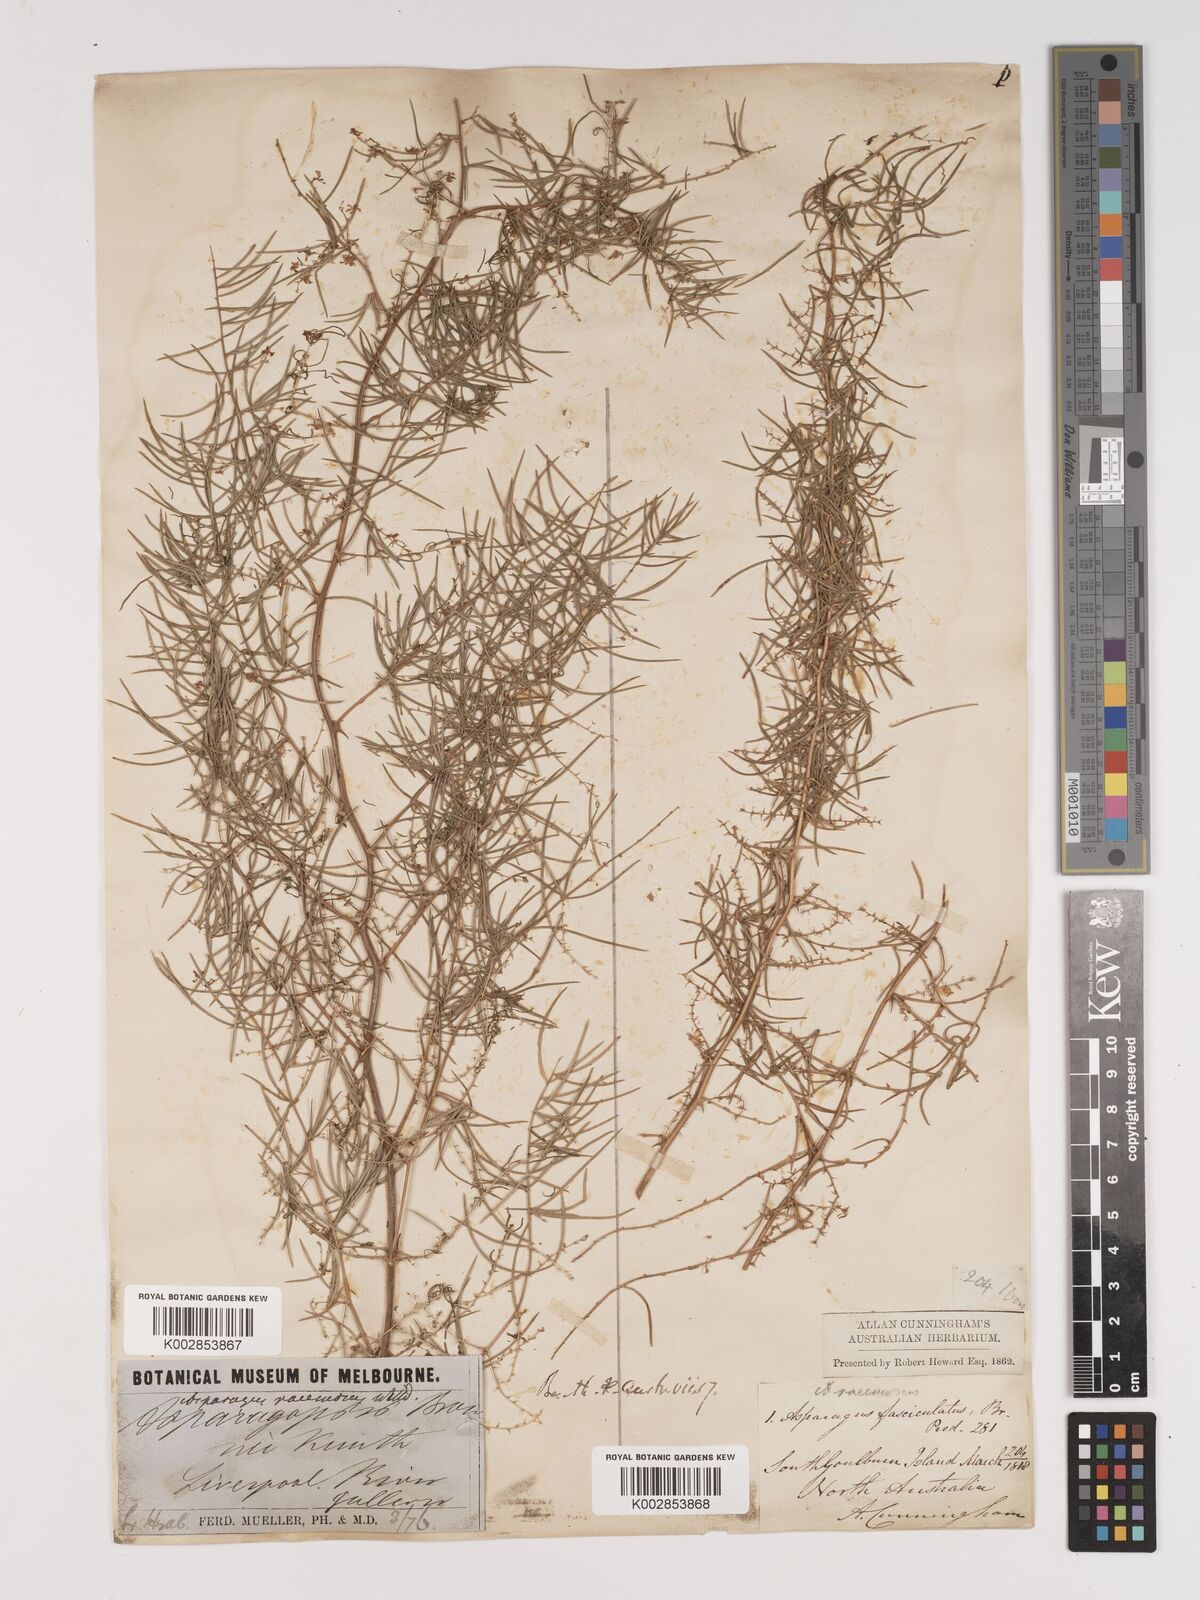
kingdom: Plantae
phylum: Tracheophyta
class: Liliopsida
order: Asparagales
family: Asparagaceae
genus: Asparagus
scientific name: Asparagus racemosus
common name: Asparagus-fern
